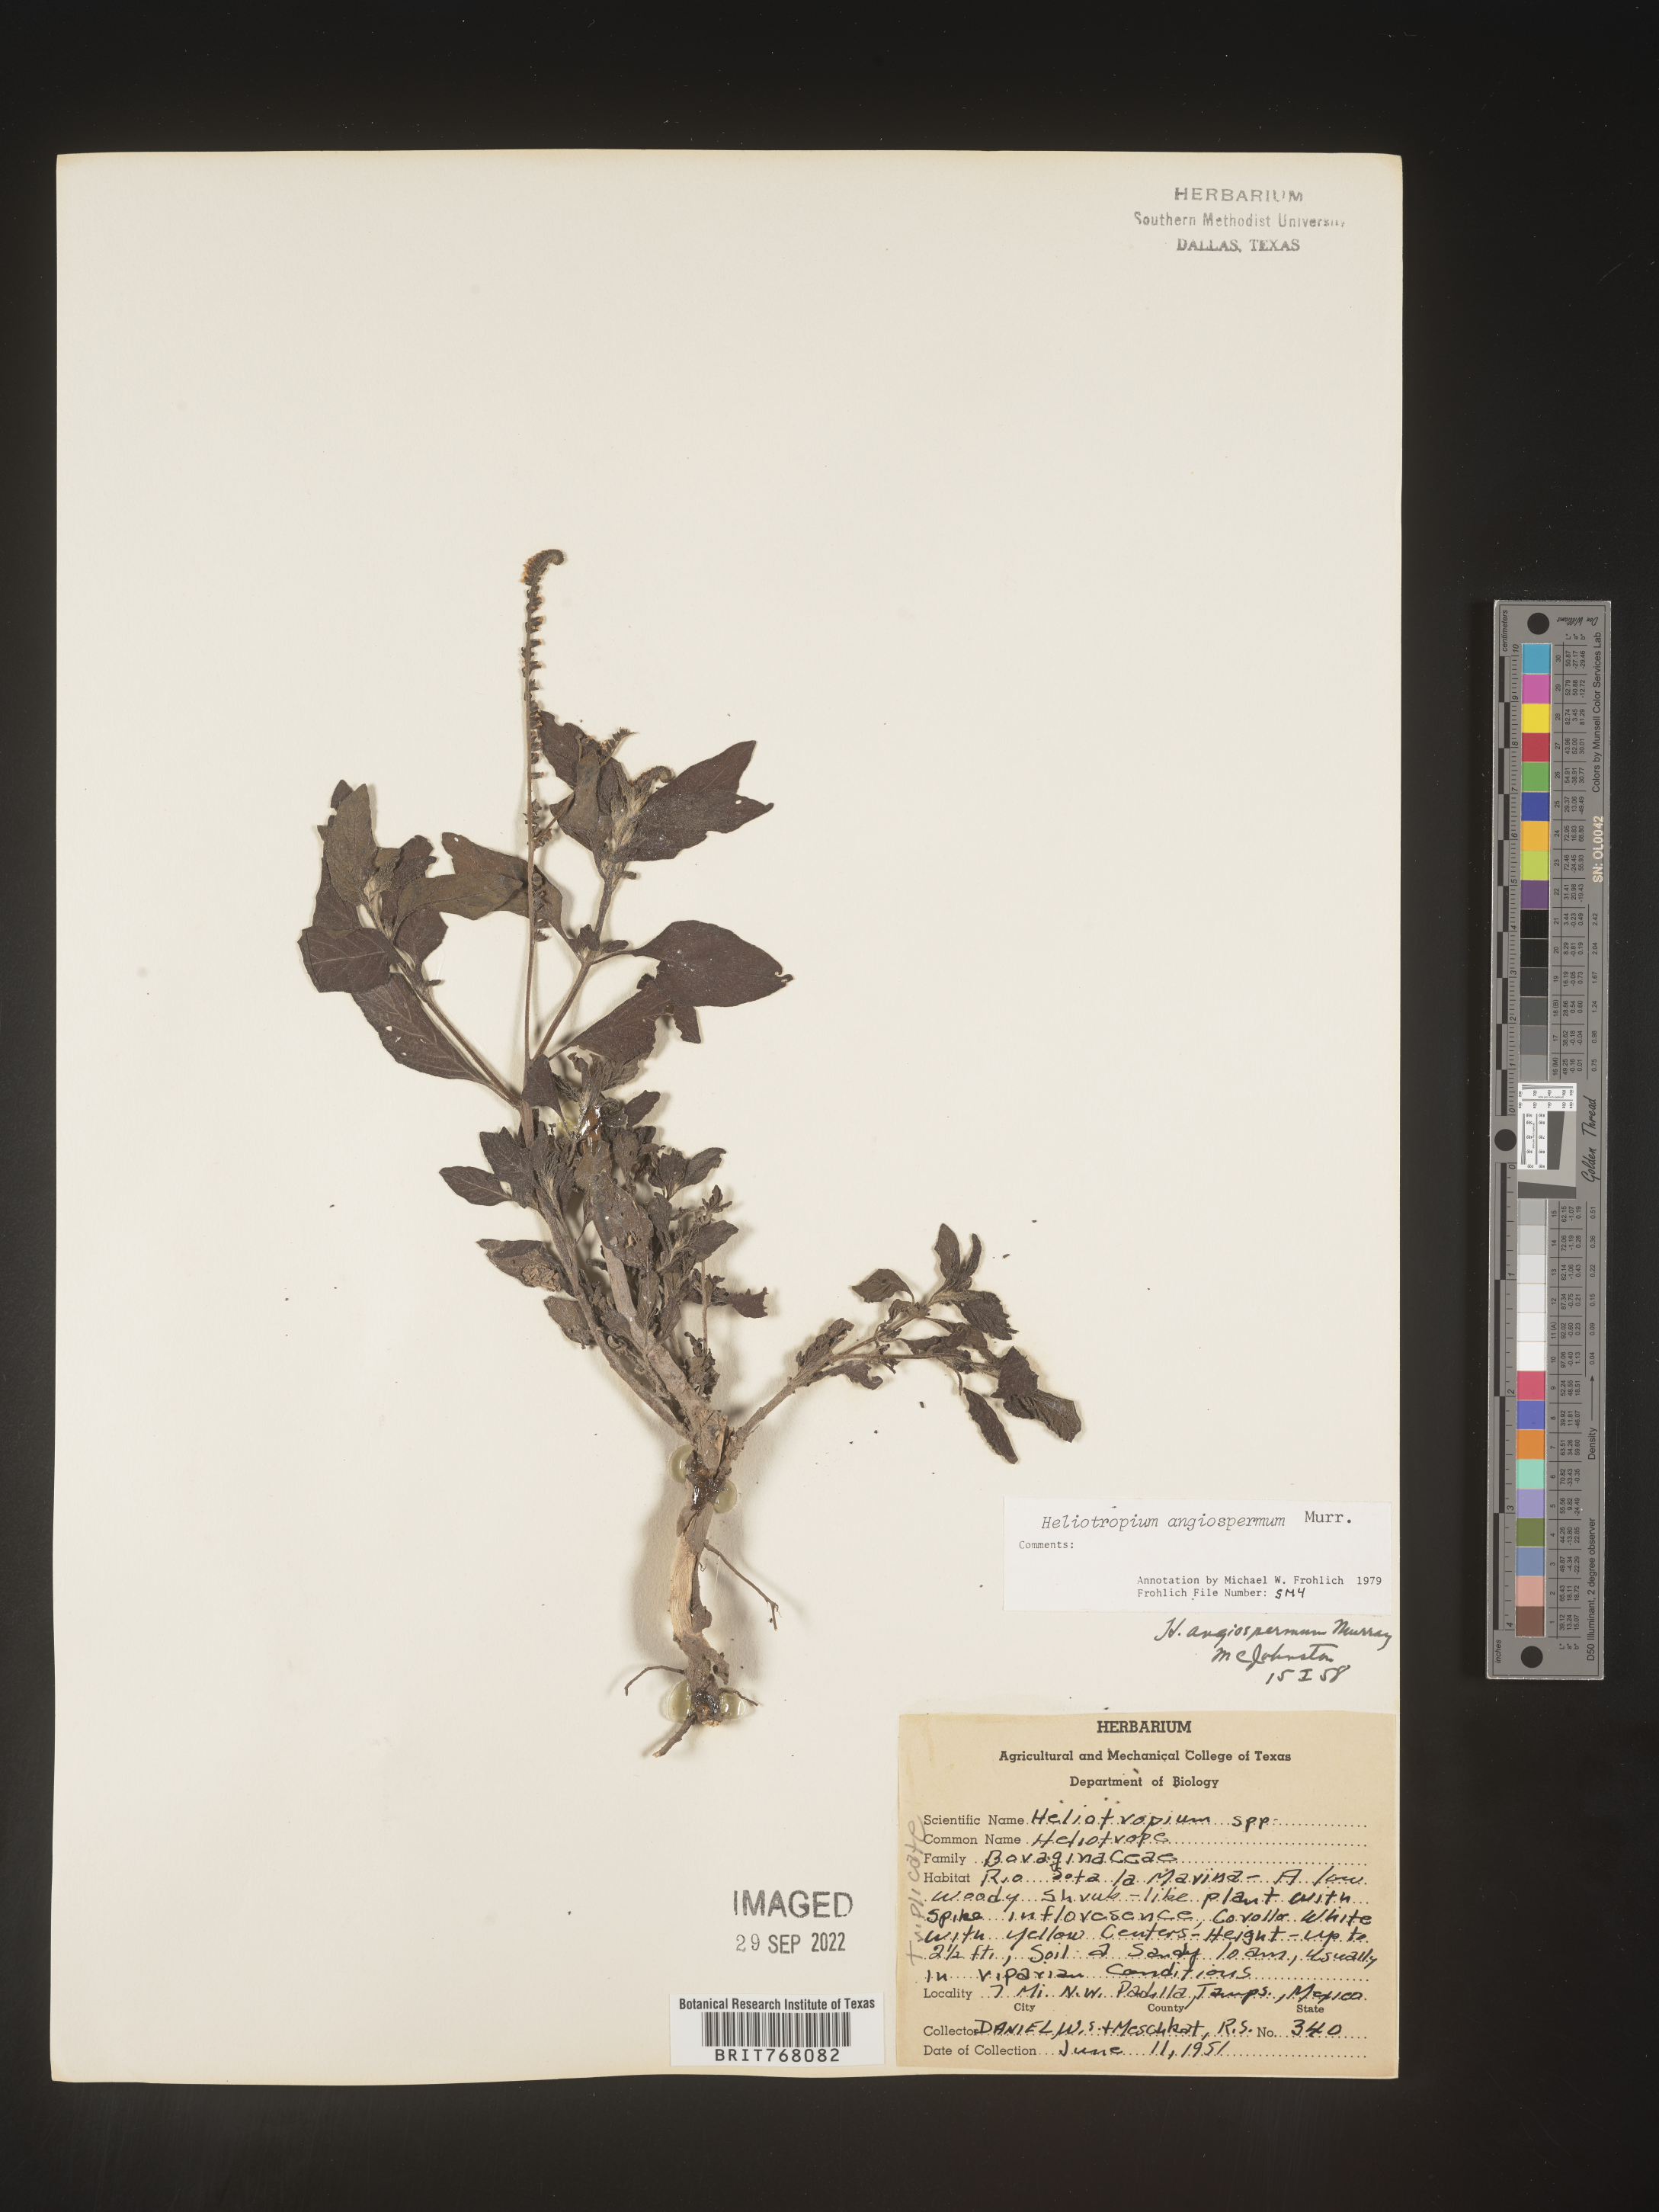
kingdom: Plantae
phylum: Tracheophyta
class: Magnoliopsida
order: Boraginales
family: Heliotropiaceae
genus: Heliotropium
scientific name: Heliotropium
